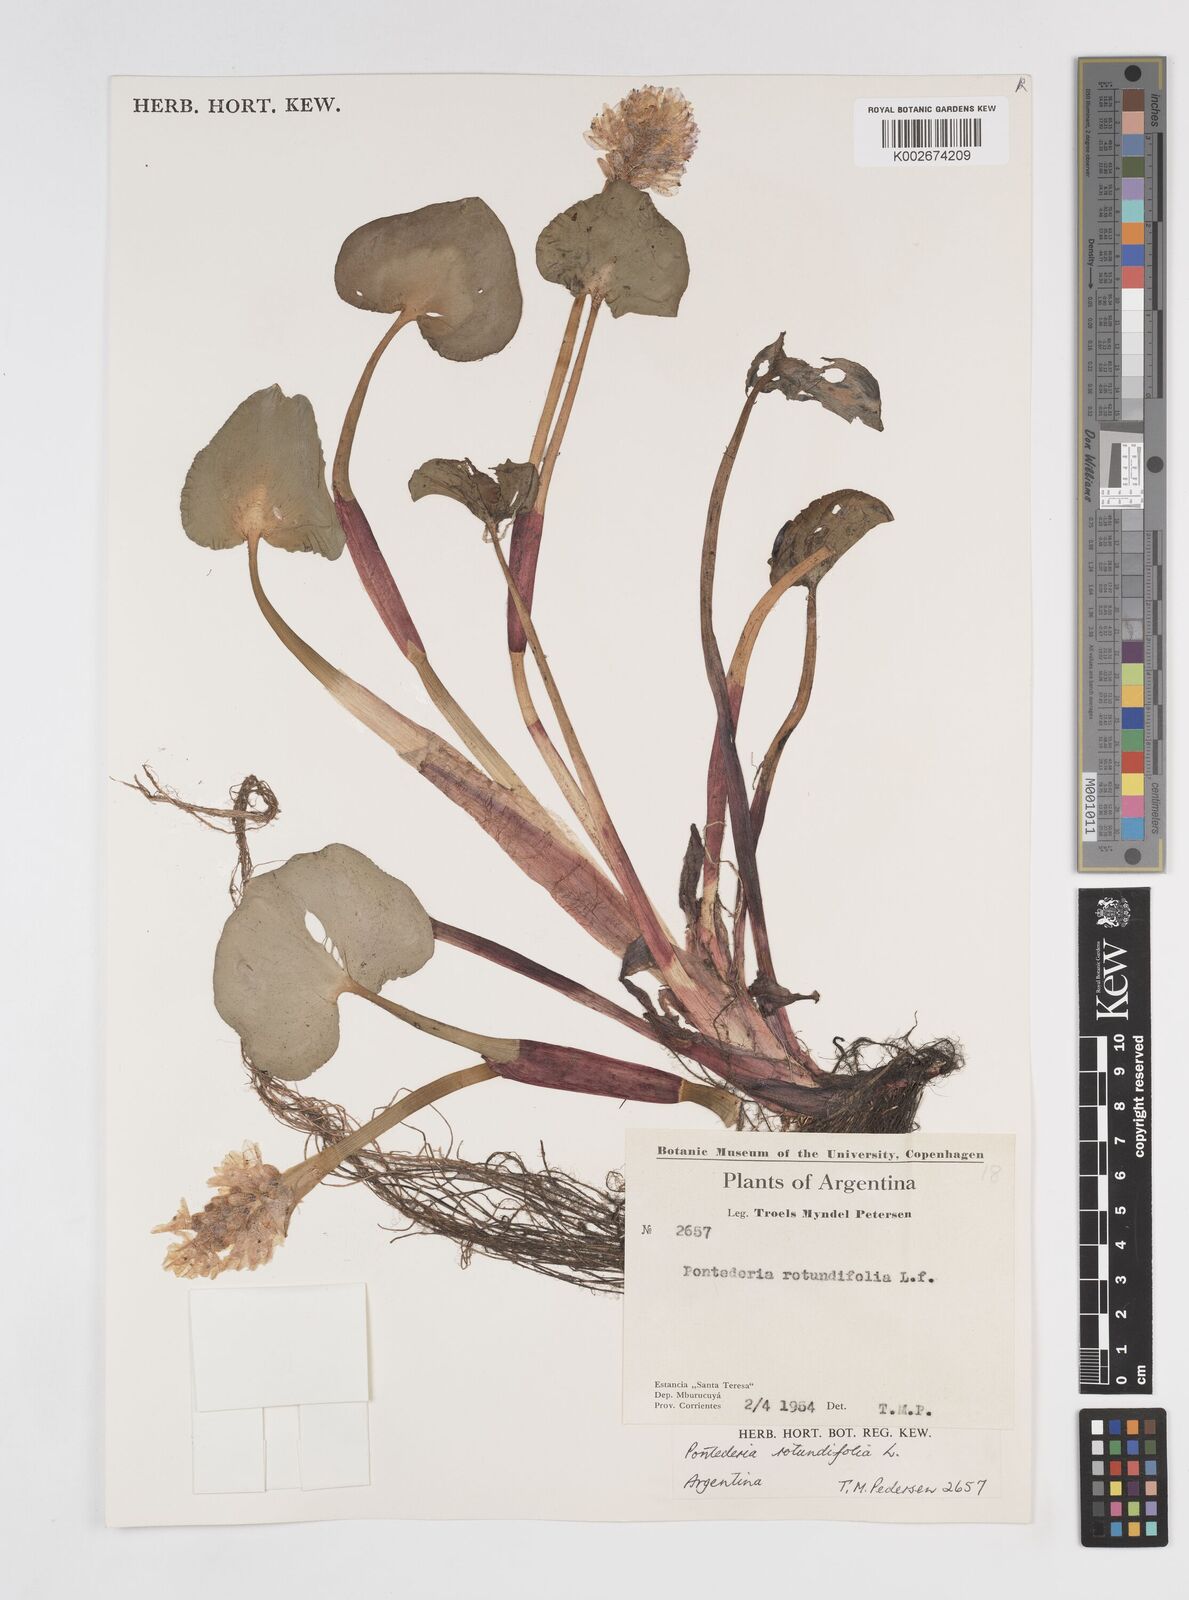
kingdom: Plantae
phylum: Tracheophyta
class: Liliopsida
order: Commelinales
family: Pontederiaceae
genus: Pontederia
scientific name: Pontederia rotundifolia
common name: Tropical pickerel-weed
